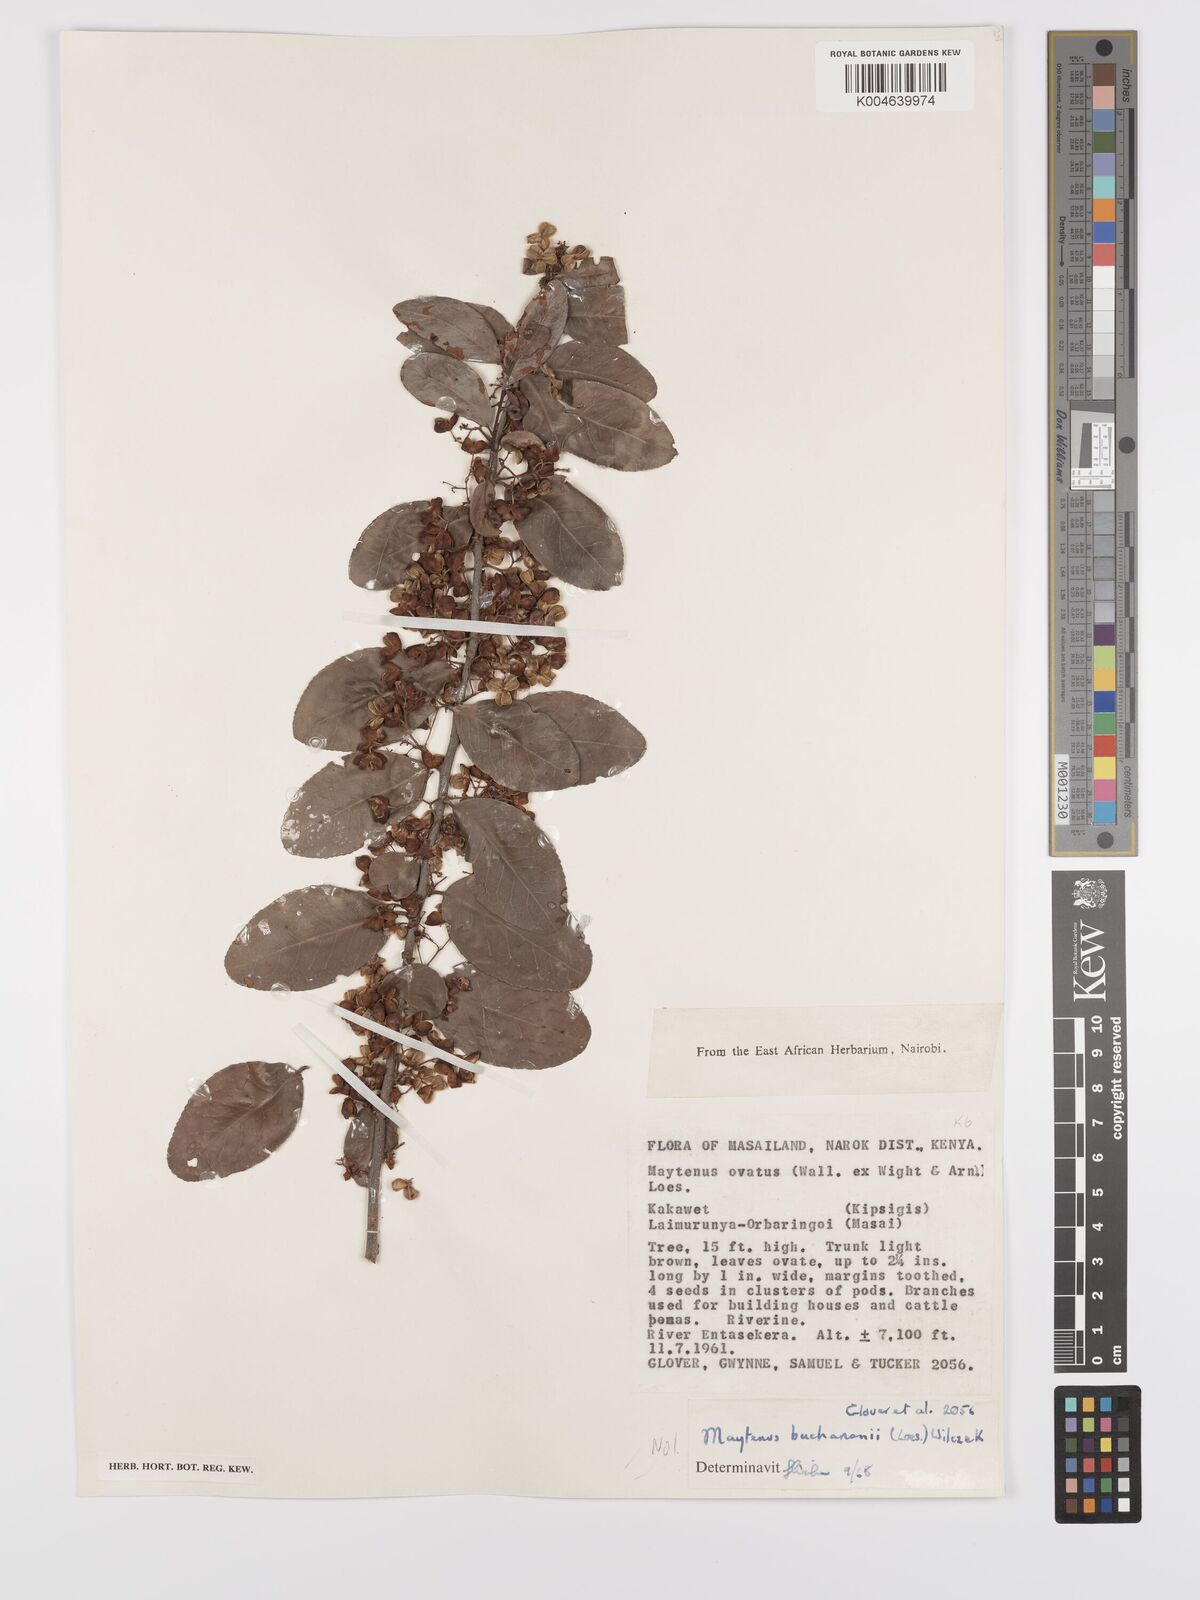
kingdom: Plantae
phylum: Tracheophyta
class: Magnoliopsida
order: Celastrales
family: Celastraceae
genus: Gymnosporia
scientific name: Gymnosporia arbutifolia
